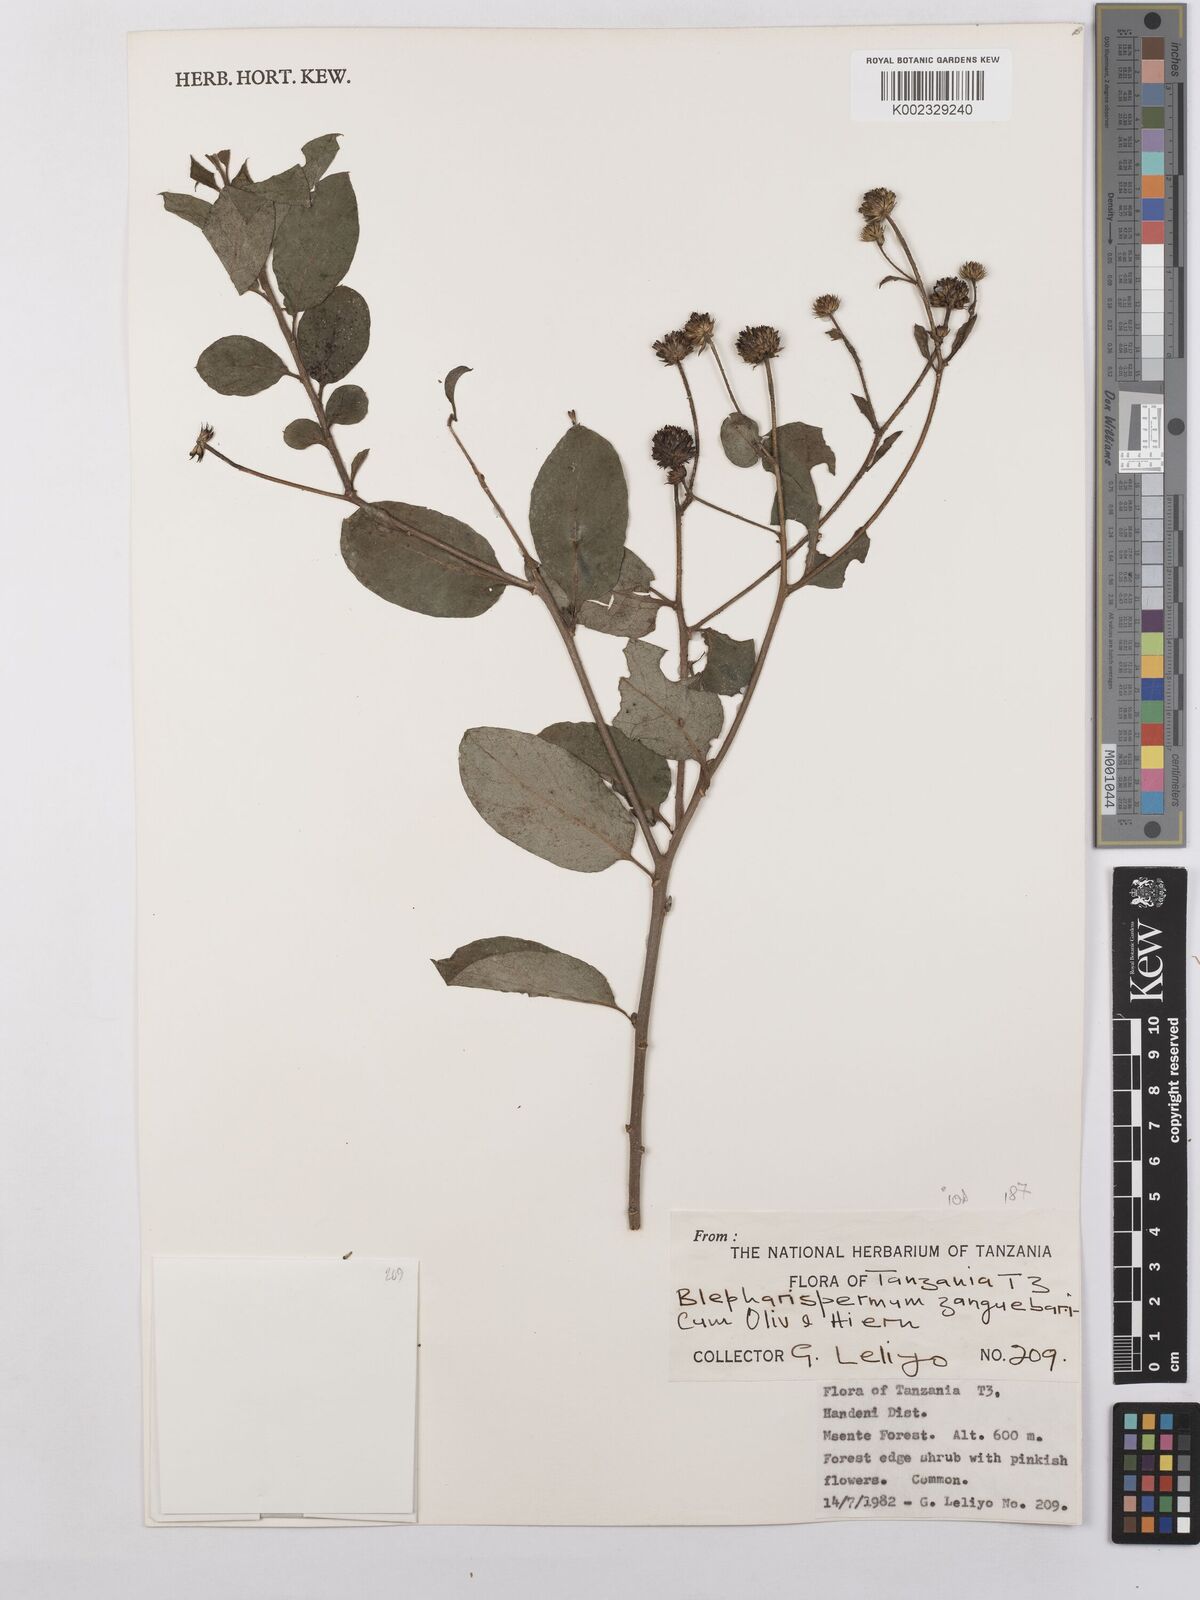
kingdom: Plantae
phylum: Tracheophyta
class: Magnoliopsida
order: Asterales
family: Asteraceae
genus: Blepharispermum
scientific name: Blepharispermum zanguebaricum
